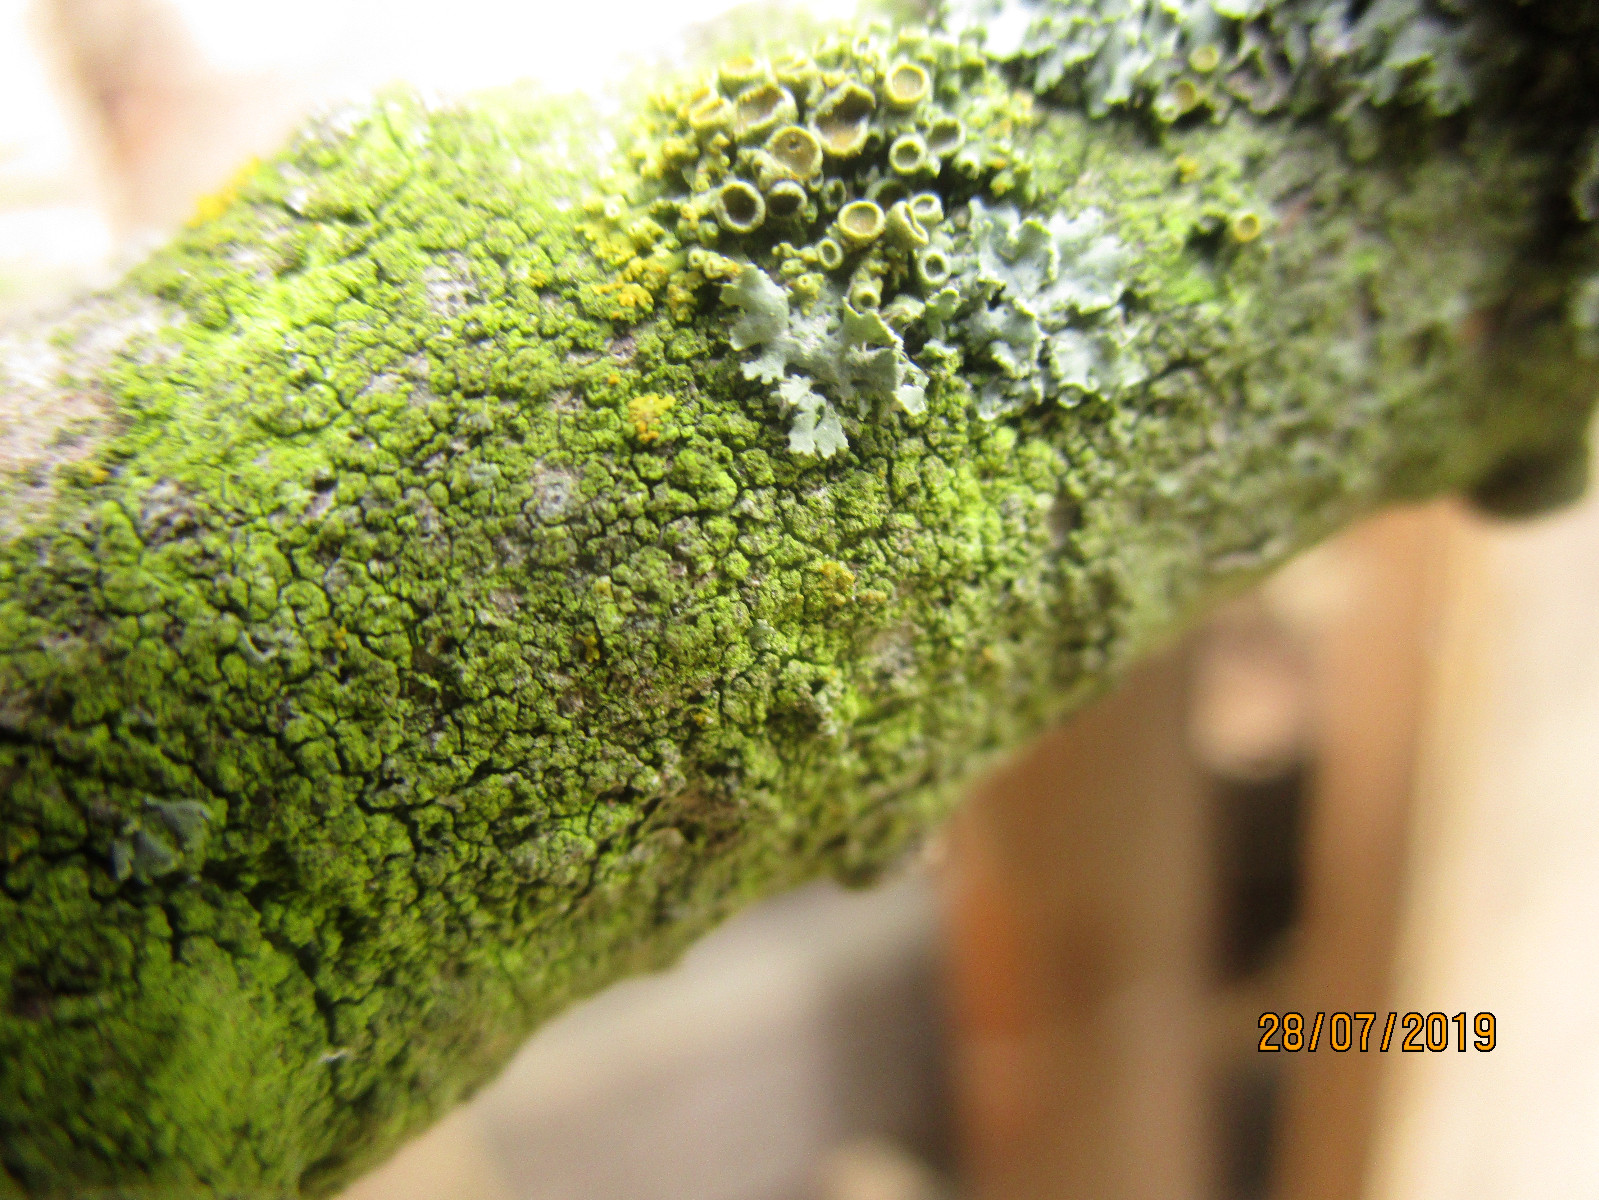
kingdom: Fungi
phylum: Ascomycota
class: Lecanoromycetes
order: Teloschistales
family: Teloschistaceae
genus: Polycauliona
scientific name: Polycauliona polycarpa
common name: mangefrugtet orangelav
